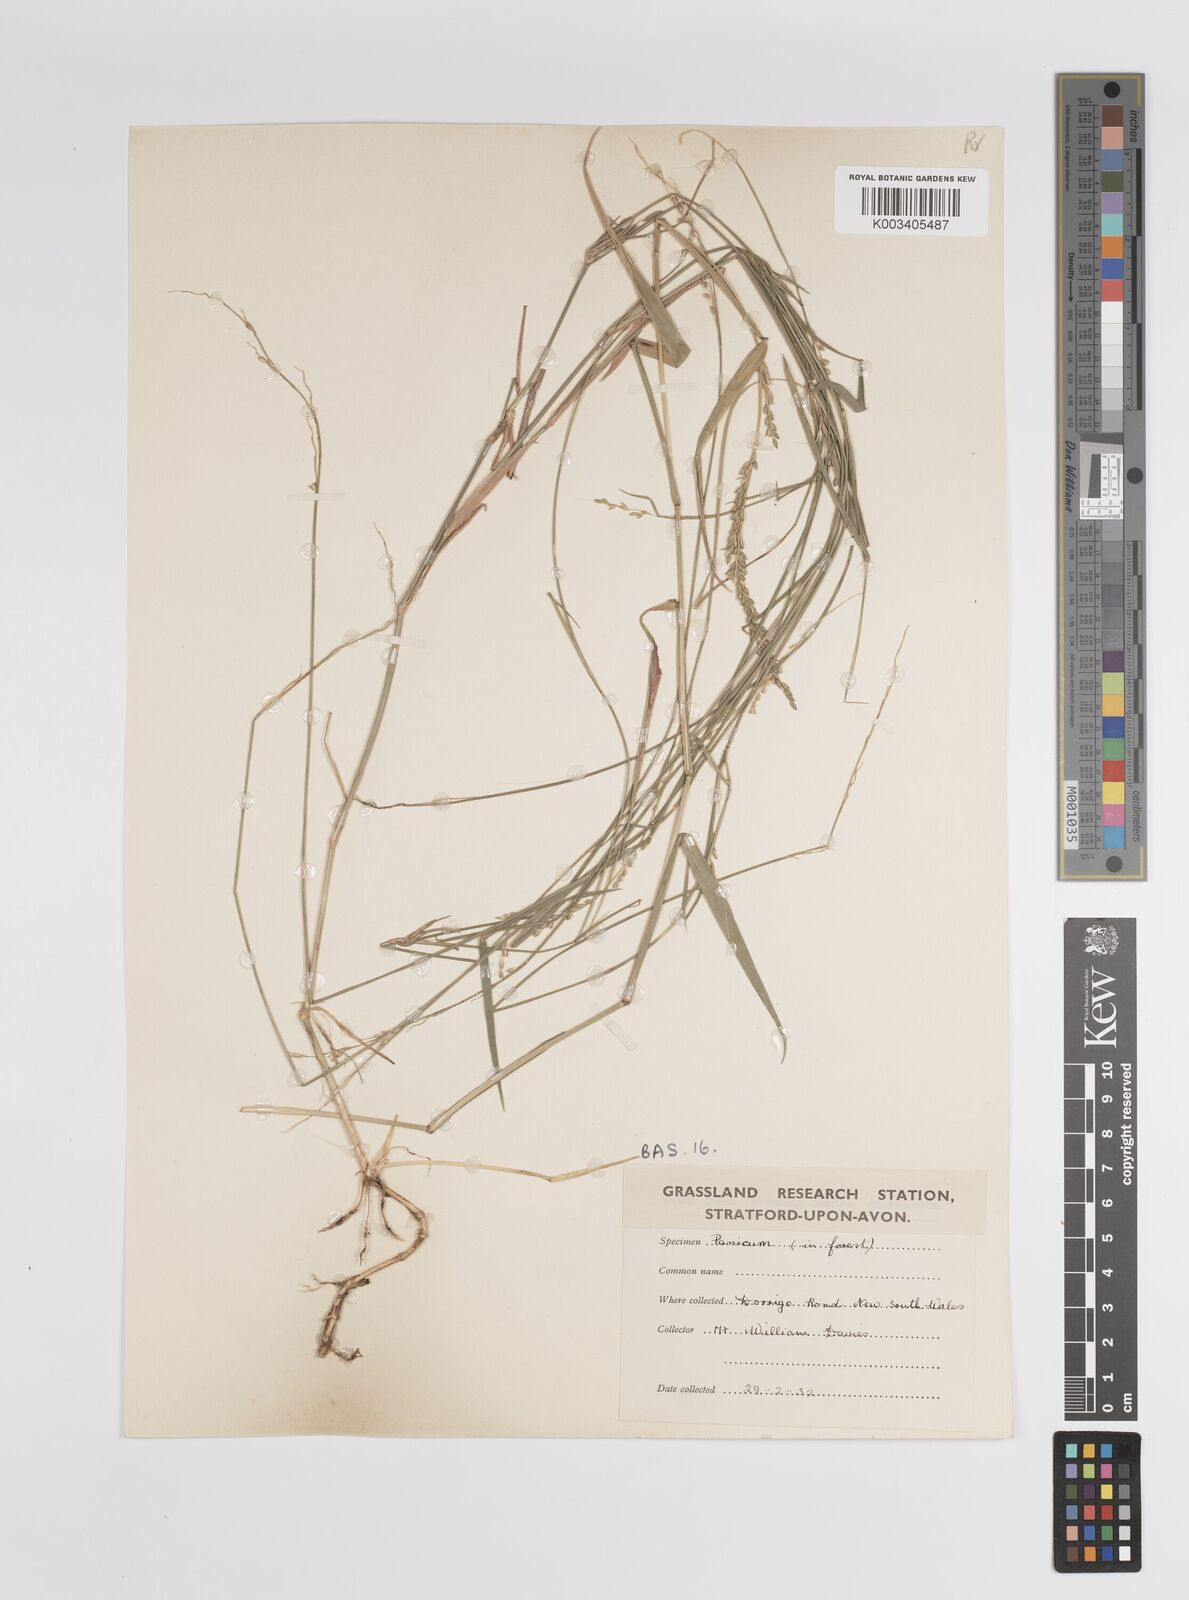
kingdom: Plantae
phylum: Tracheophyta
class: Liliopsida
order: Poales
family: Poaceae
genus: Panicum
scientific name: Panicum
